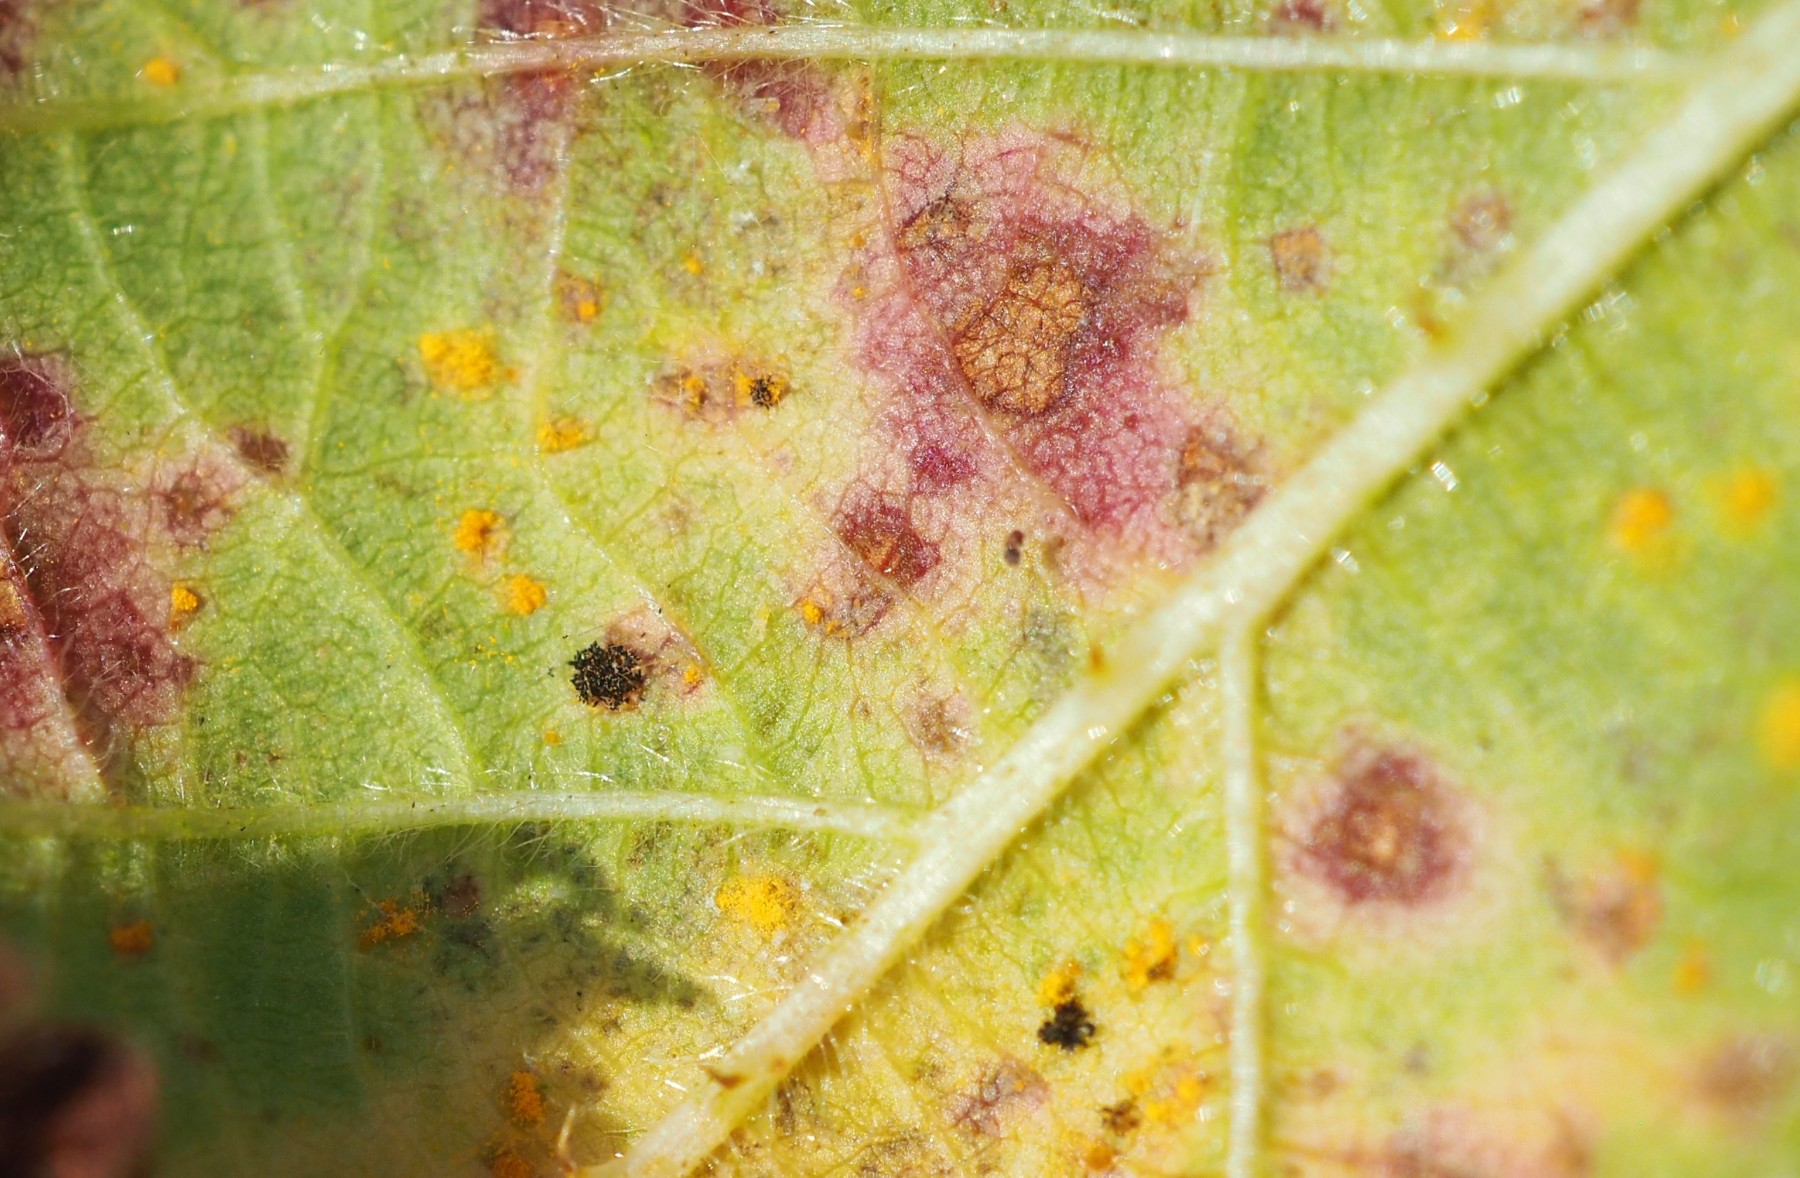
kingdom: Fungi
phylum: Basidiomycota
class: Pucciniomycetes
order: Pucciniales
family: Phragmidiaceae
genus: Phragmidium
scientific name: Phragmidium violaceum
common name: violet flercellerust
